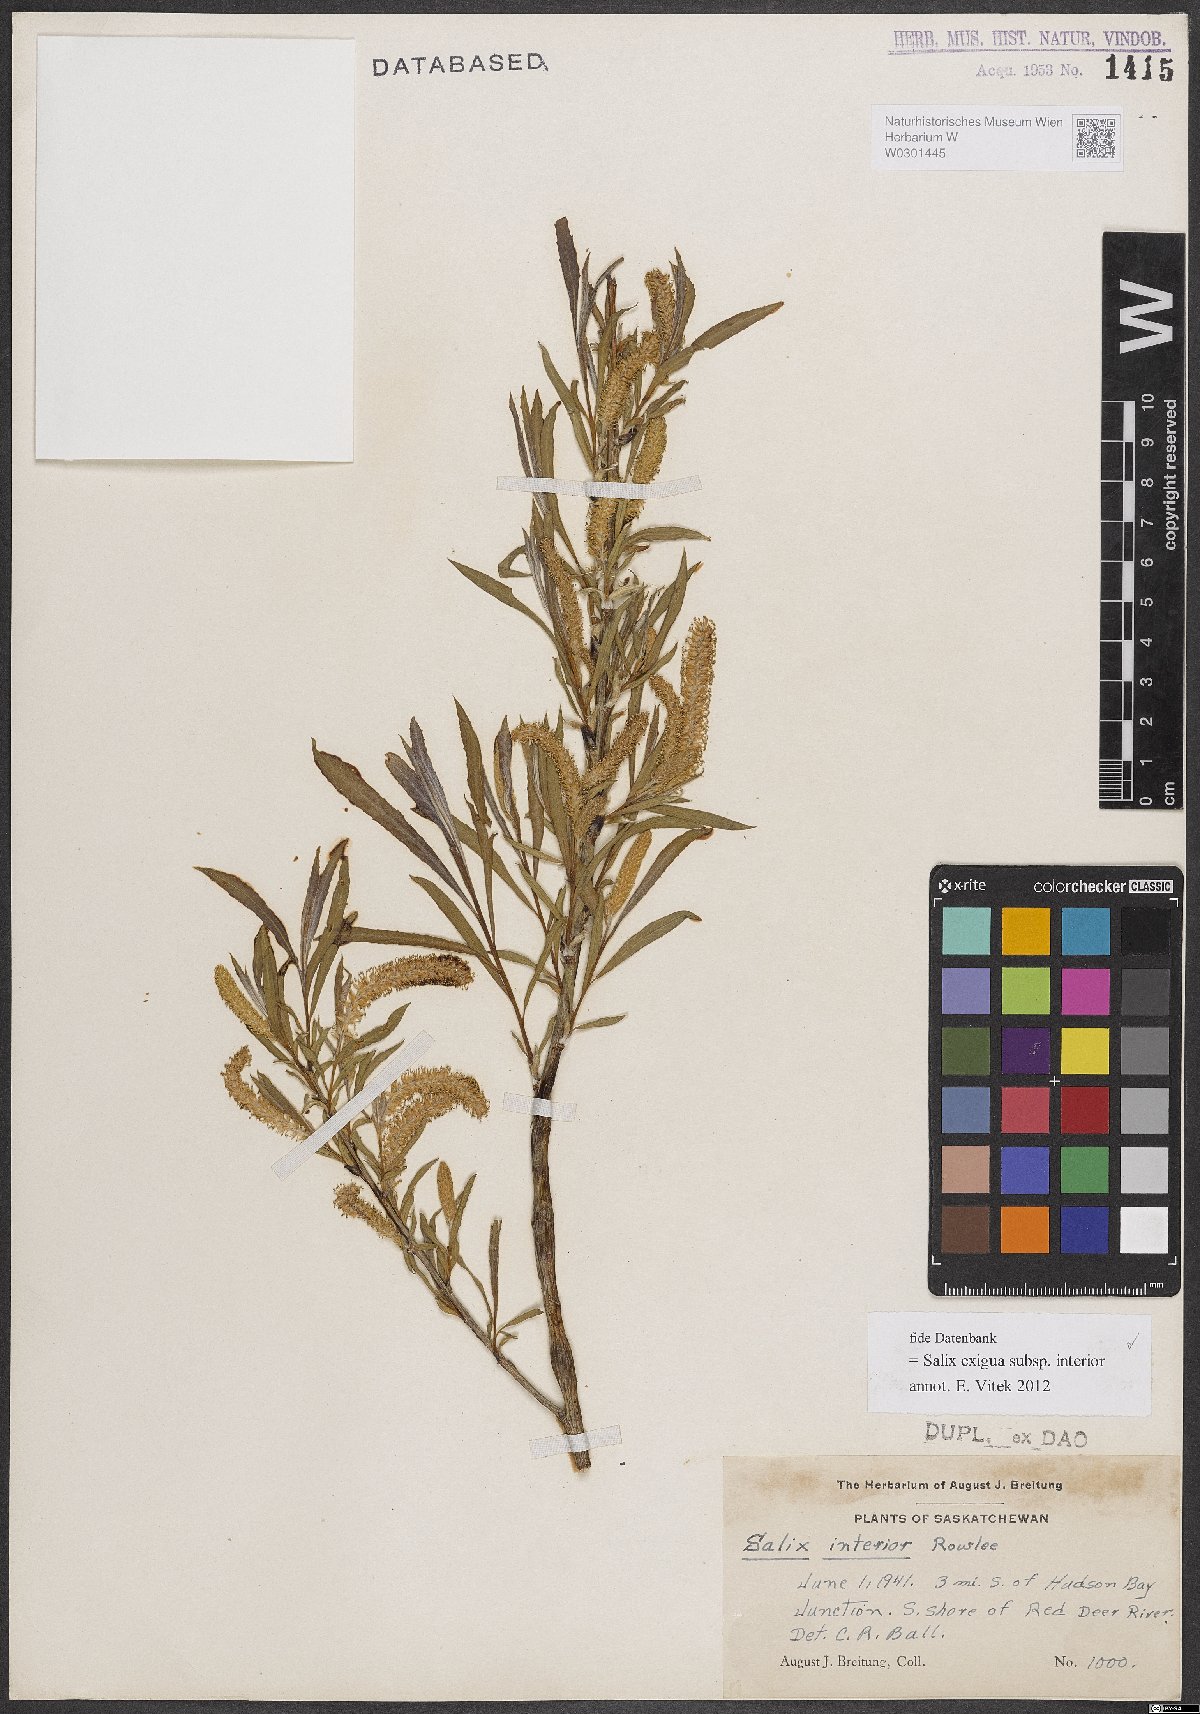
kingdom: Plantae
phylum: Tracheophyta
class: Magnoliopsida
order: Malpighiales
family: Salicaceae
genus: Salix
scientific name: Salix interior
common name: Sandbar willow
